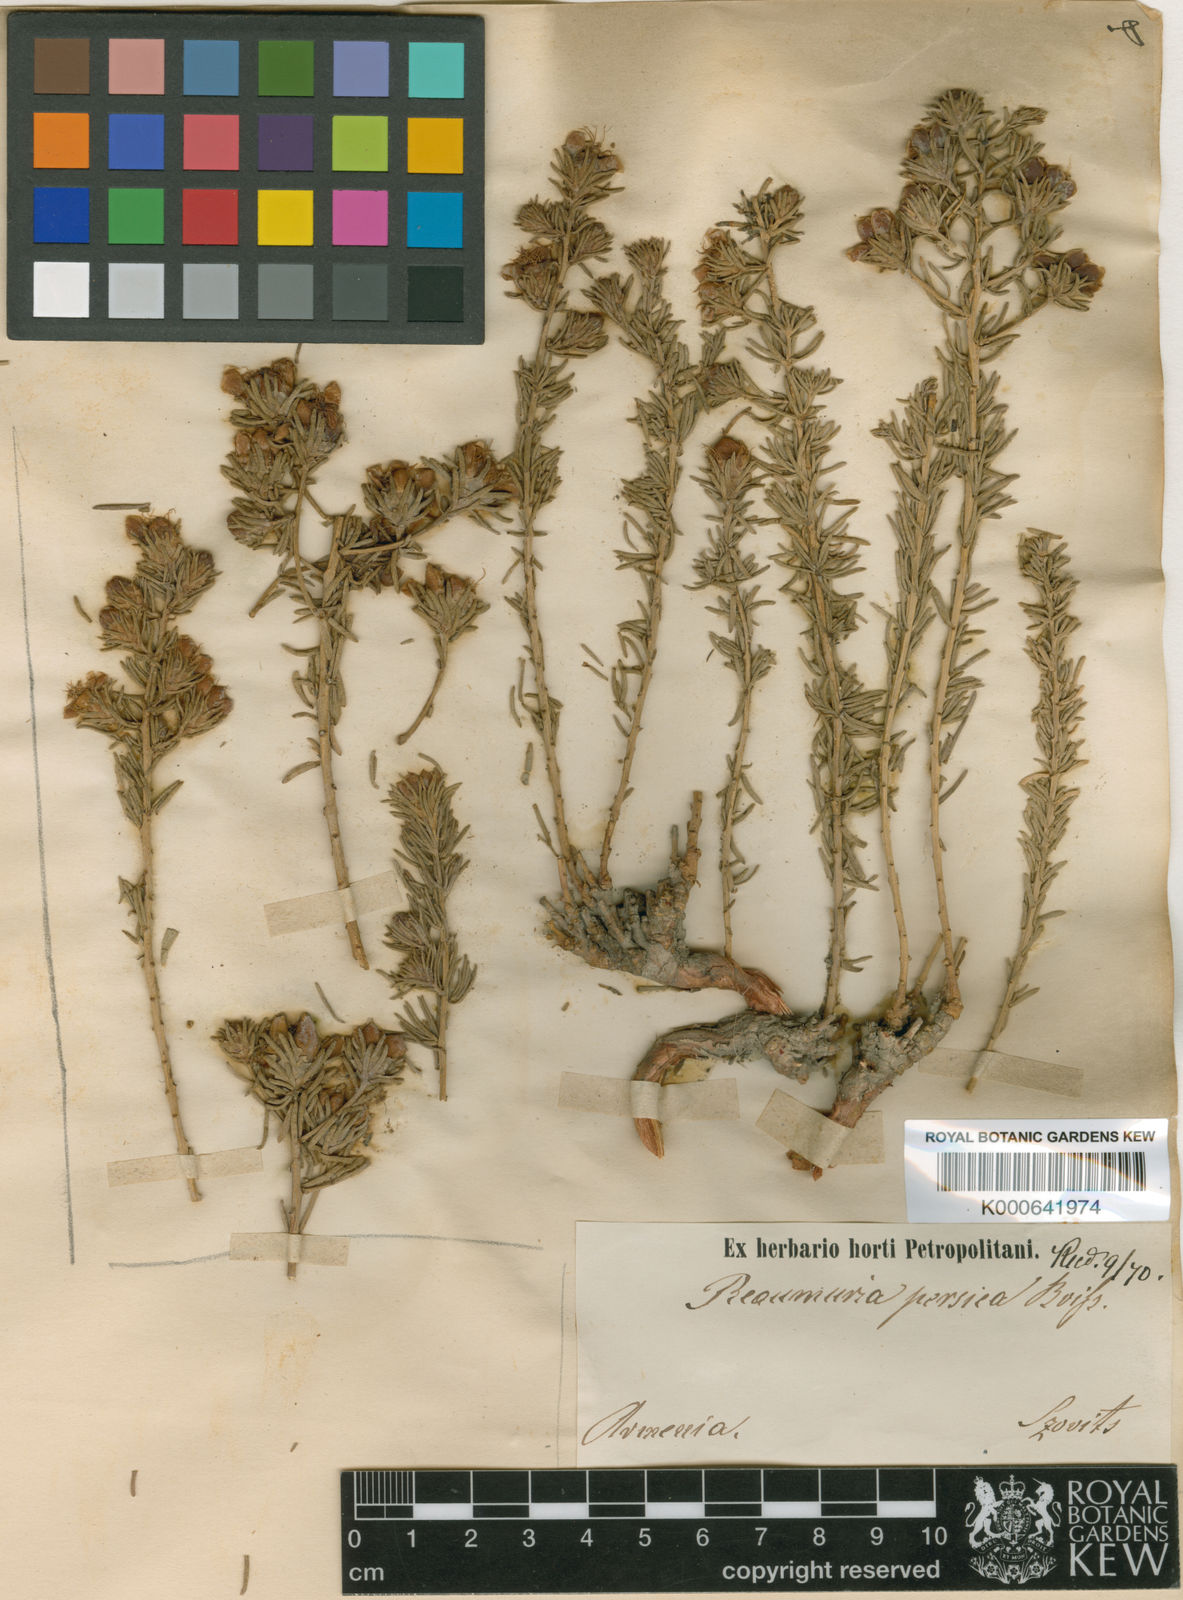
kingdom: Plantae
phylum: Tracheophyta
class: Magnoliopsida
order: Caryophyllales
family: Tamaricaceae
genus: Reaumuria
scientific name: Reaumuria persica
